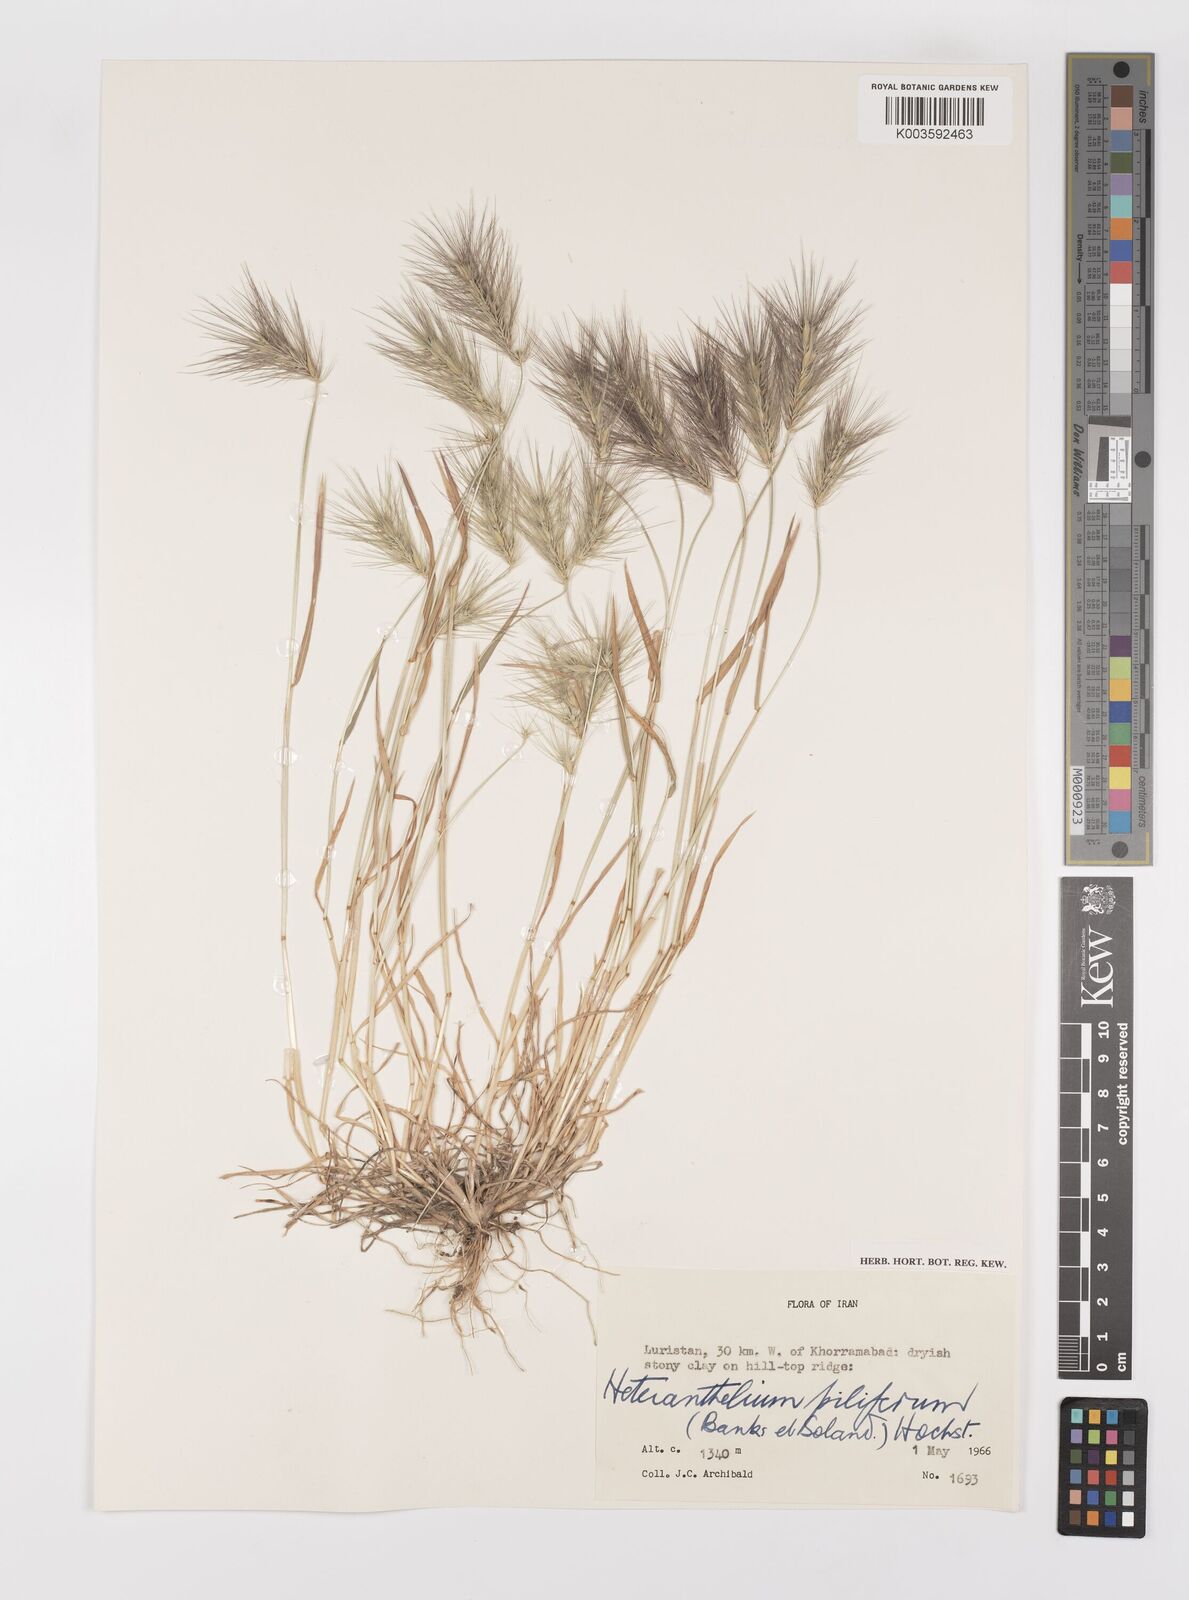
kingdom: Plantae
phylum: Tracheophyta
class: Liliopsida
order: Poales
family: Poaceae
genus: Heteranthelium
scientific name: Heteranthelium piliferum
